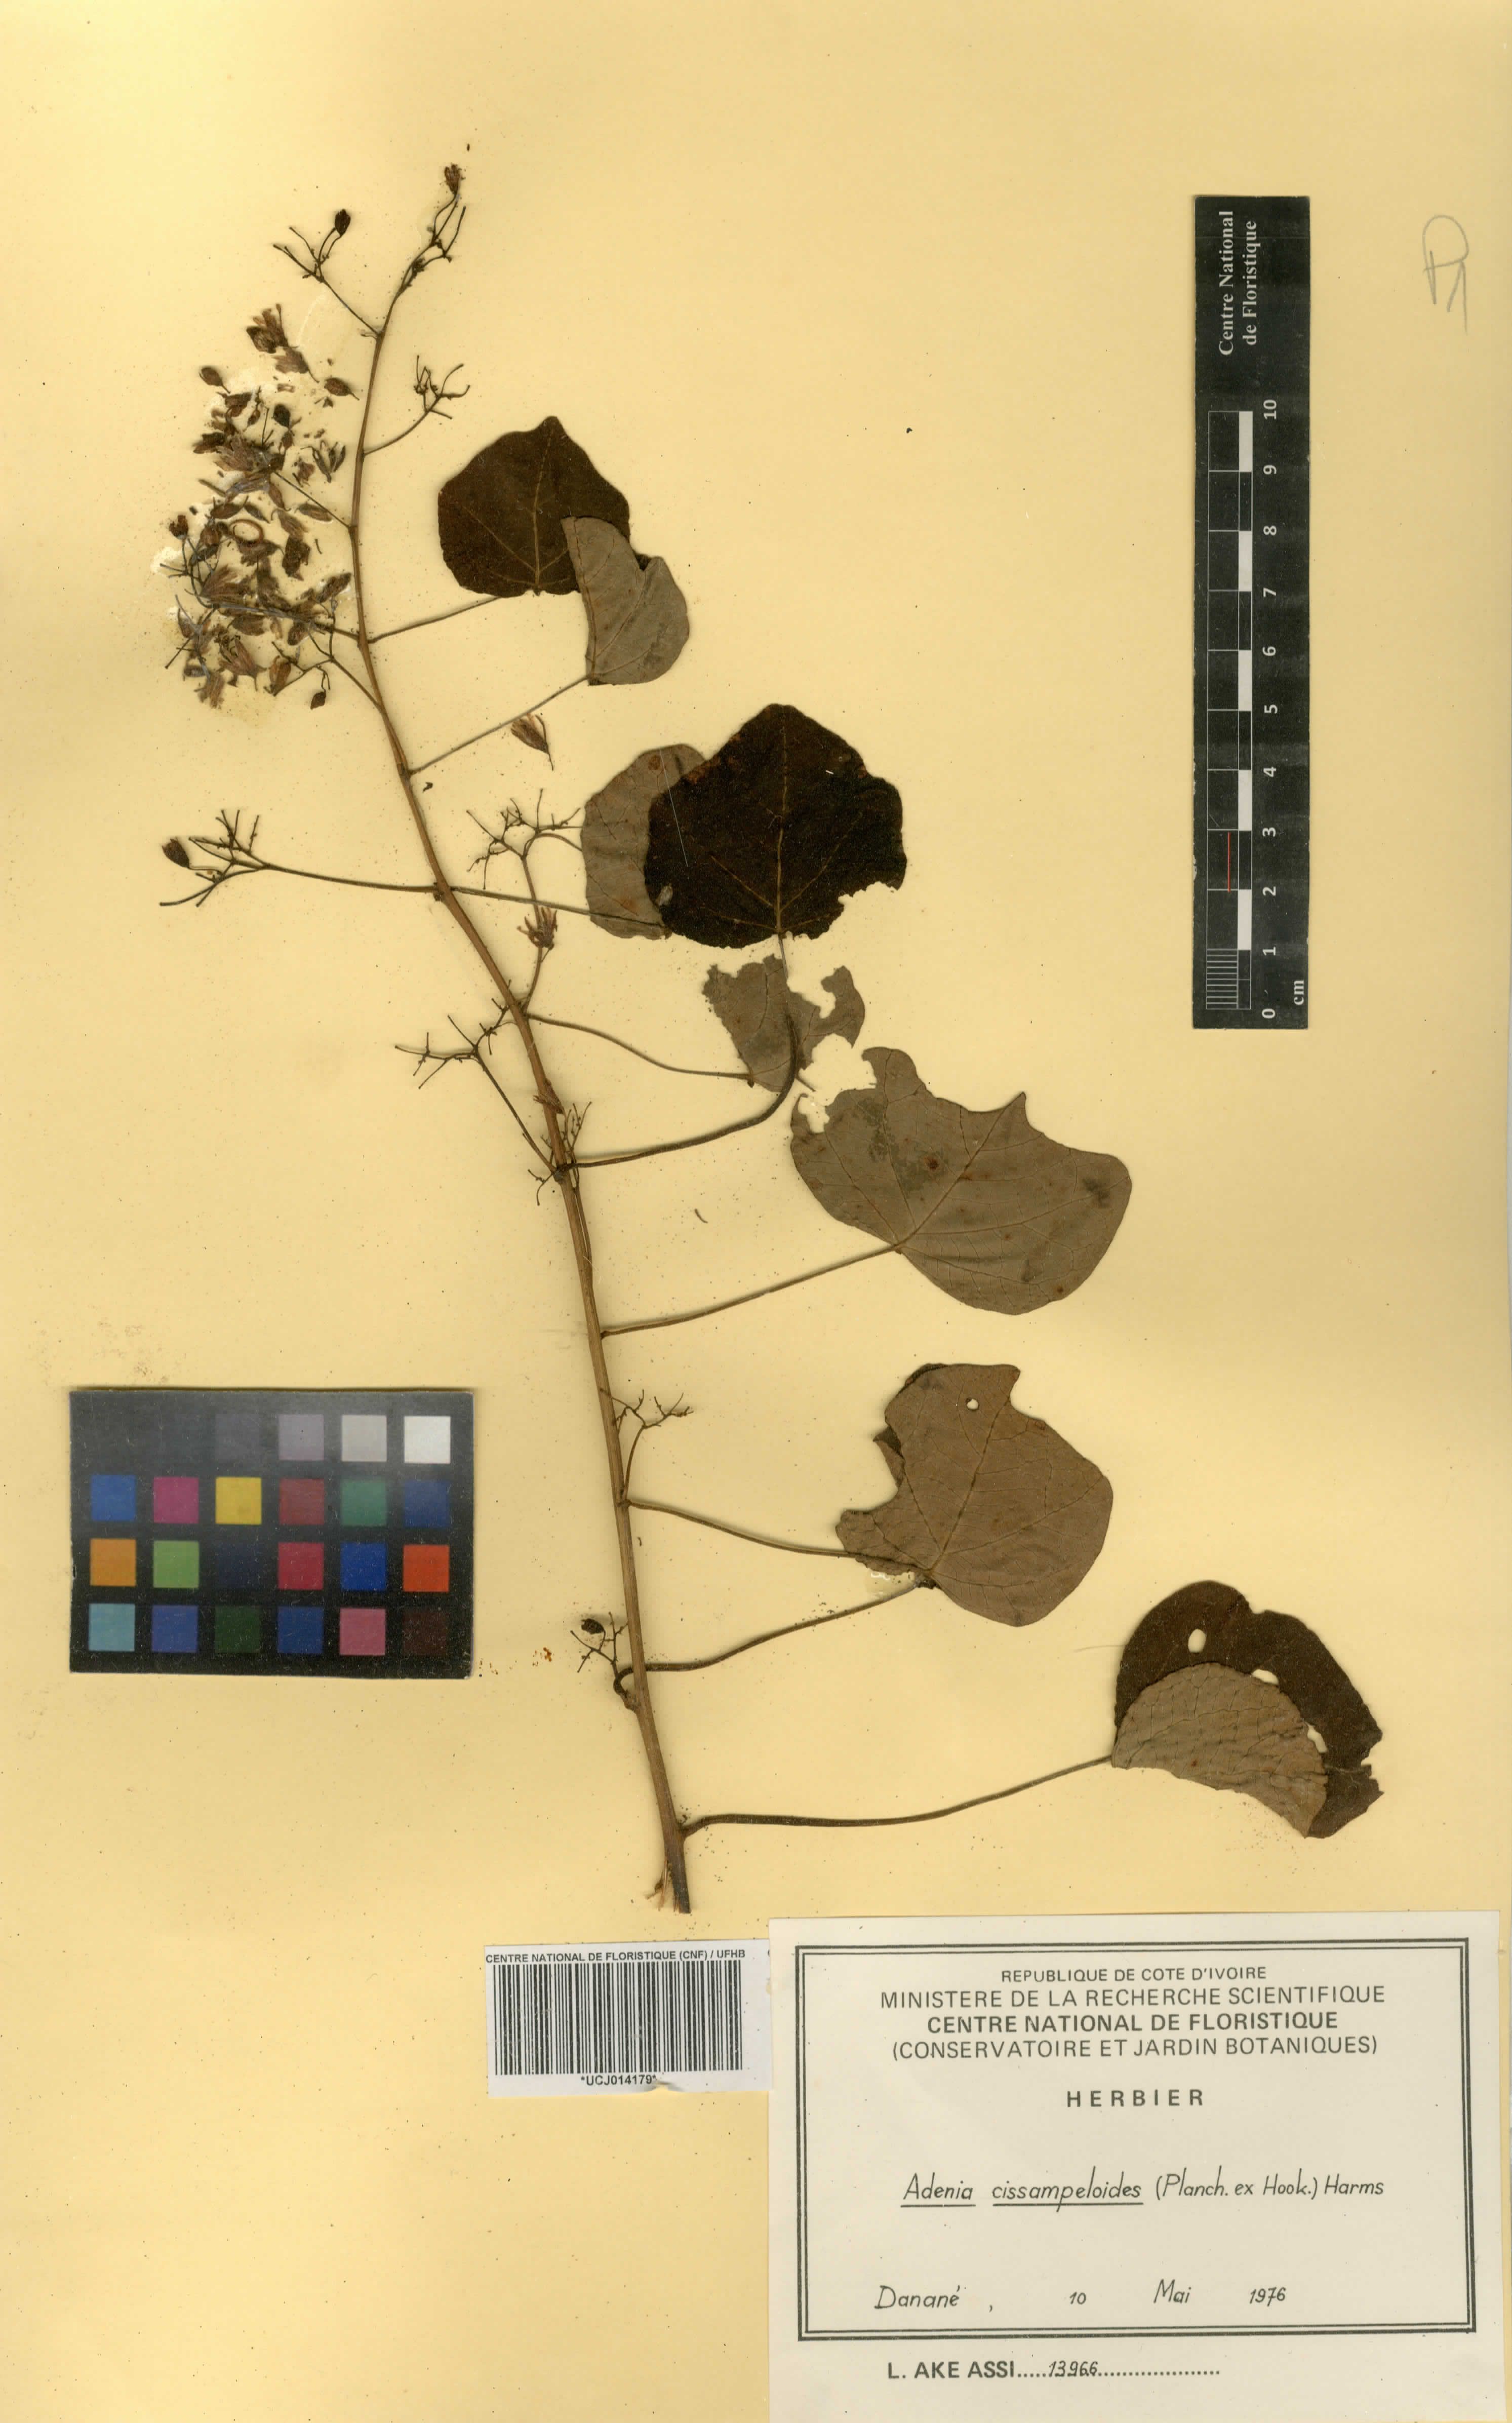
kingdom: Plantae
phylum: Tracheophyta
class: Magnoliopsida
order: Malpighiales
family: Passifloraceae
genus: Adenia
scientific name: Adenia cissampeloides
